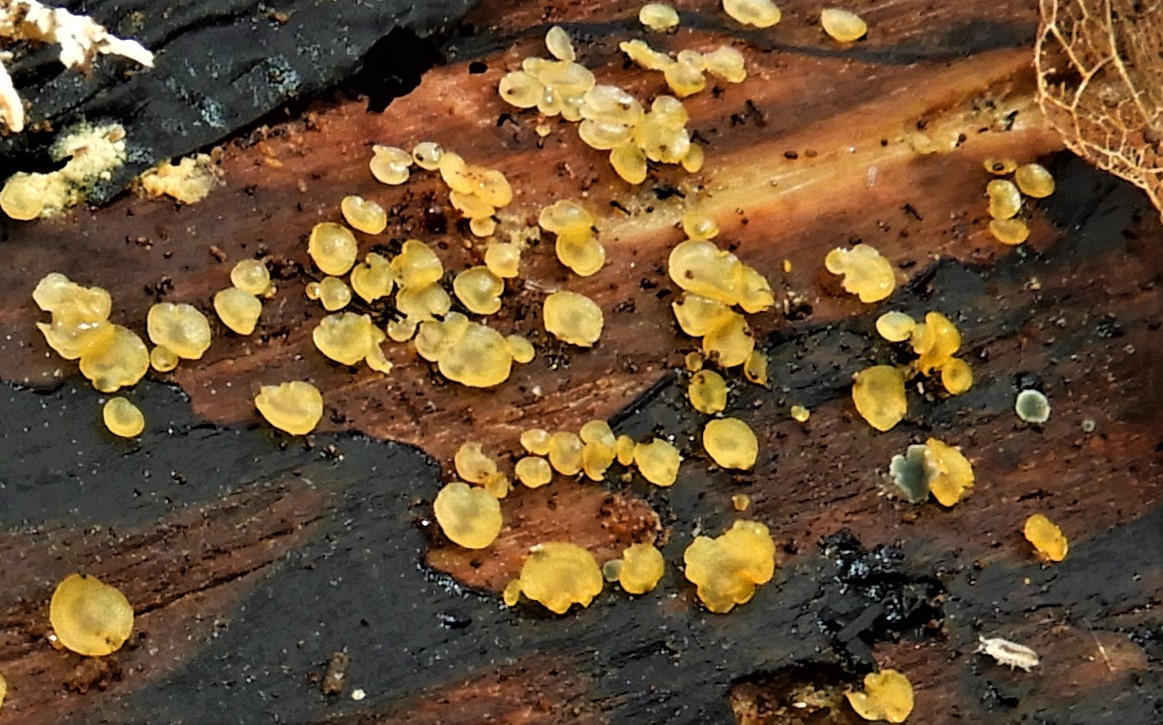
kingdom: Fungi
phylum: Ascomycota
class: Orbiliomycetes
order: Orbiliales
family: Orbiliaceae
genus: Orbilia
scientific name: Orbilia xanthostigma
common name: krumsporet voksskive
